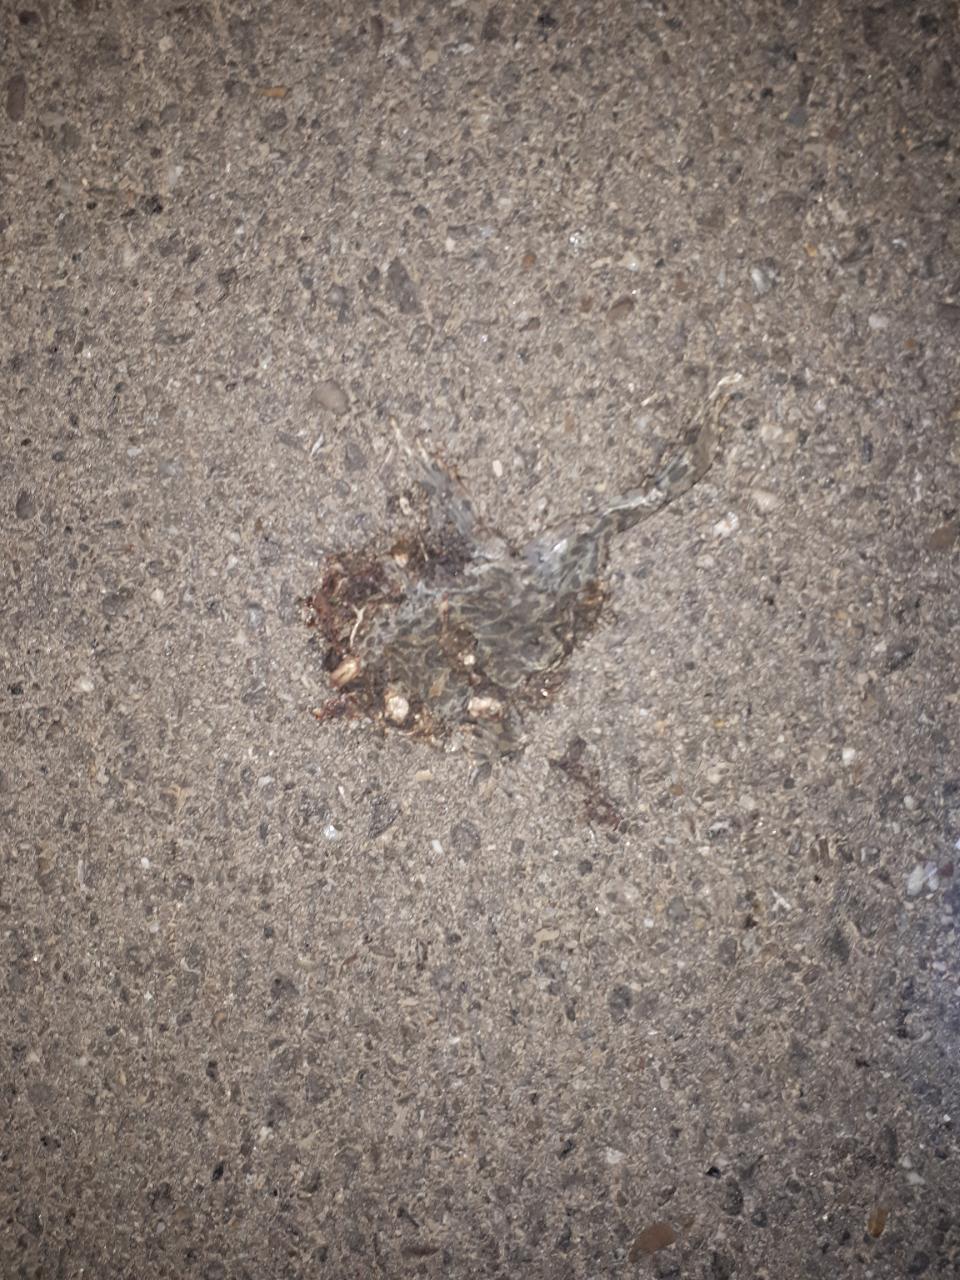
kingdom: Animalia
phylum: Chordata
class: Amphibia
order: Anura
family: Bufonidae
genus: Bufotes
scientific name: Bufotes viridis
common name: European green toad
